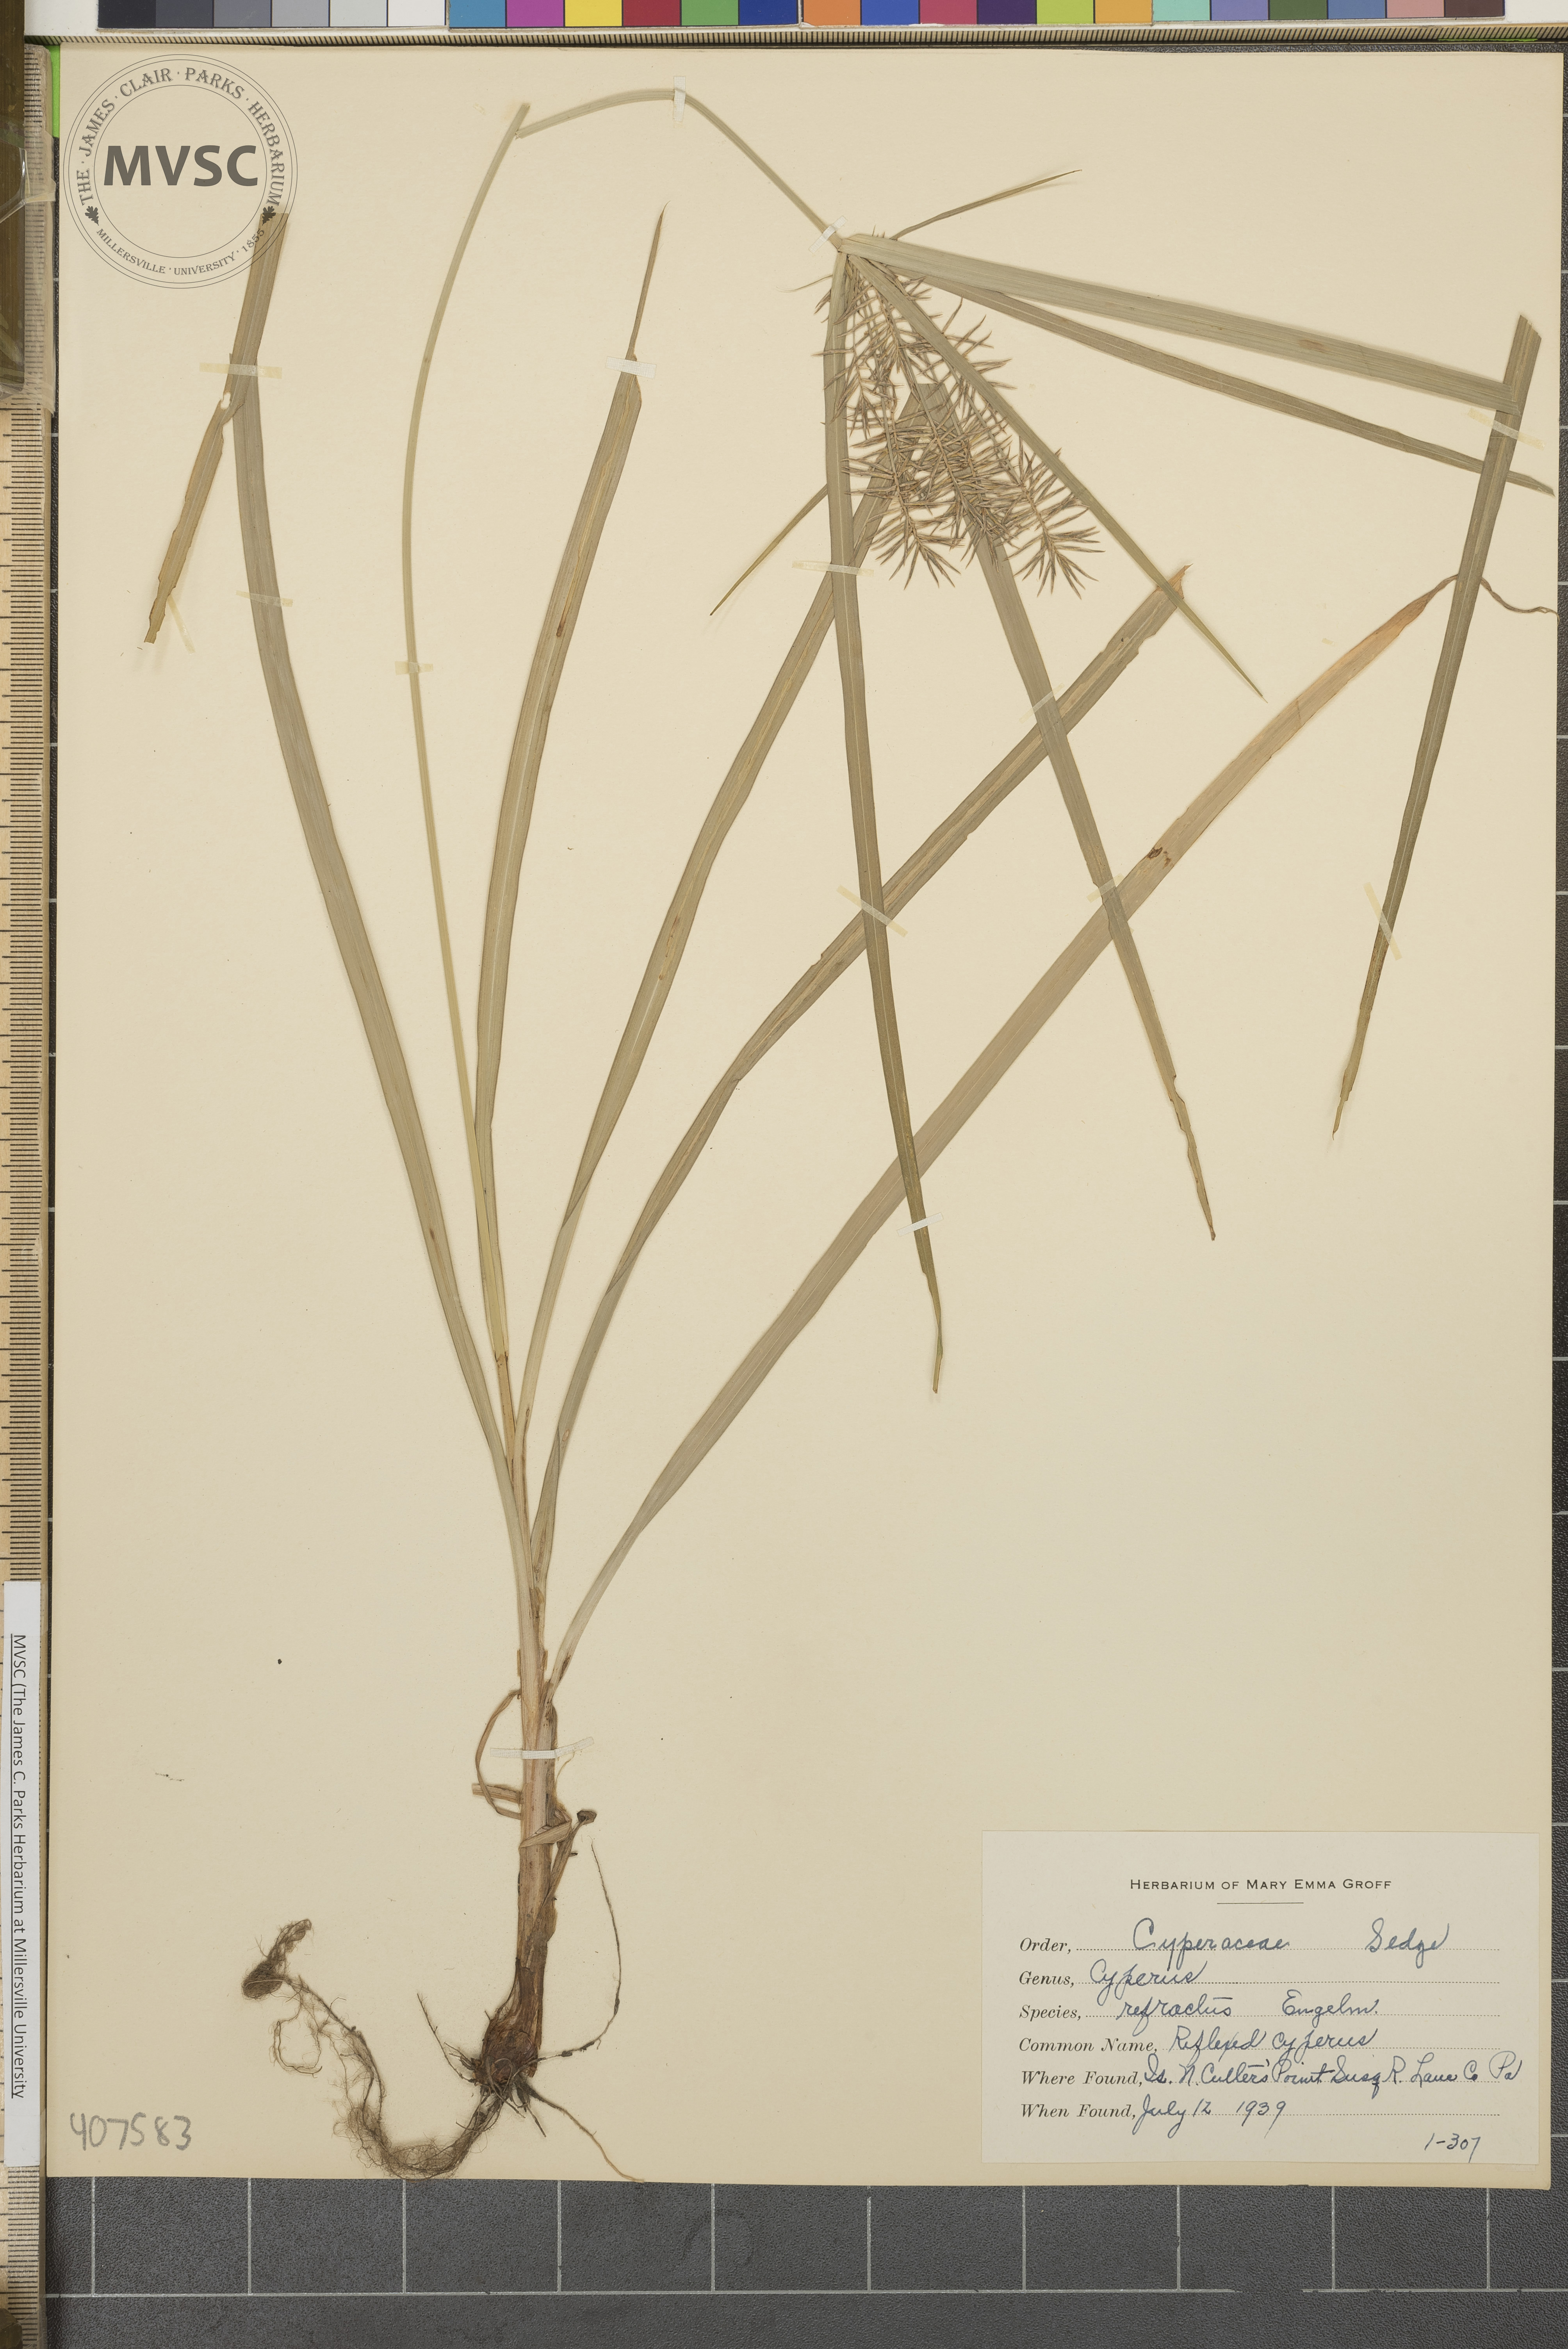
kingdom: Plantae
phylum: Tracheophyta
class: Liliopsida
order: Poales
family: Cyperaceae
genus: Cyperus
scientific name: Cyperus refractus
